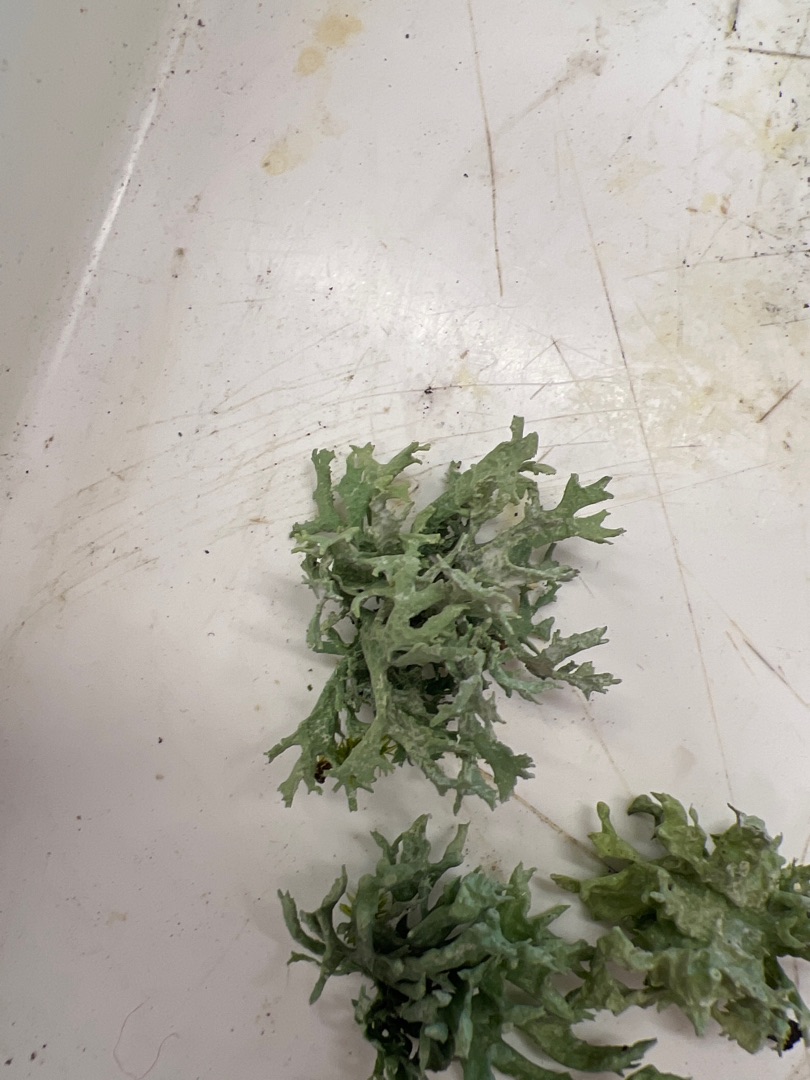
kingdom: Fungi
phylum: Ascomycota
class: Lecanoromycetes
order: Lecanorales
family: Parmeliaceae
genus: Evernia
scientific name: Evernia prunastri
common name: Almindelig slåenlav
